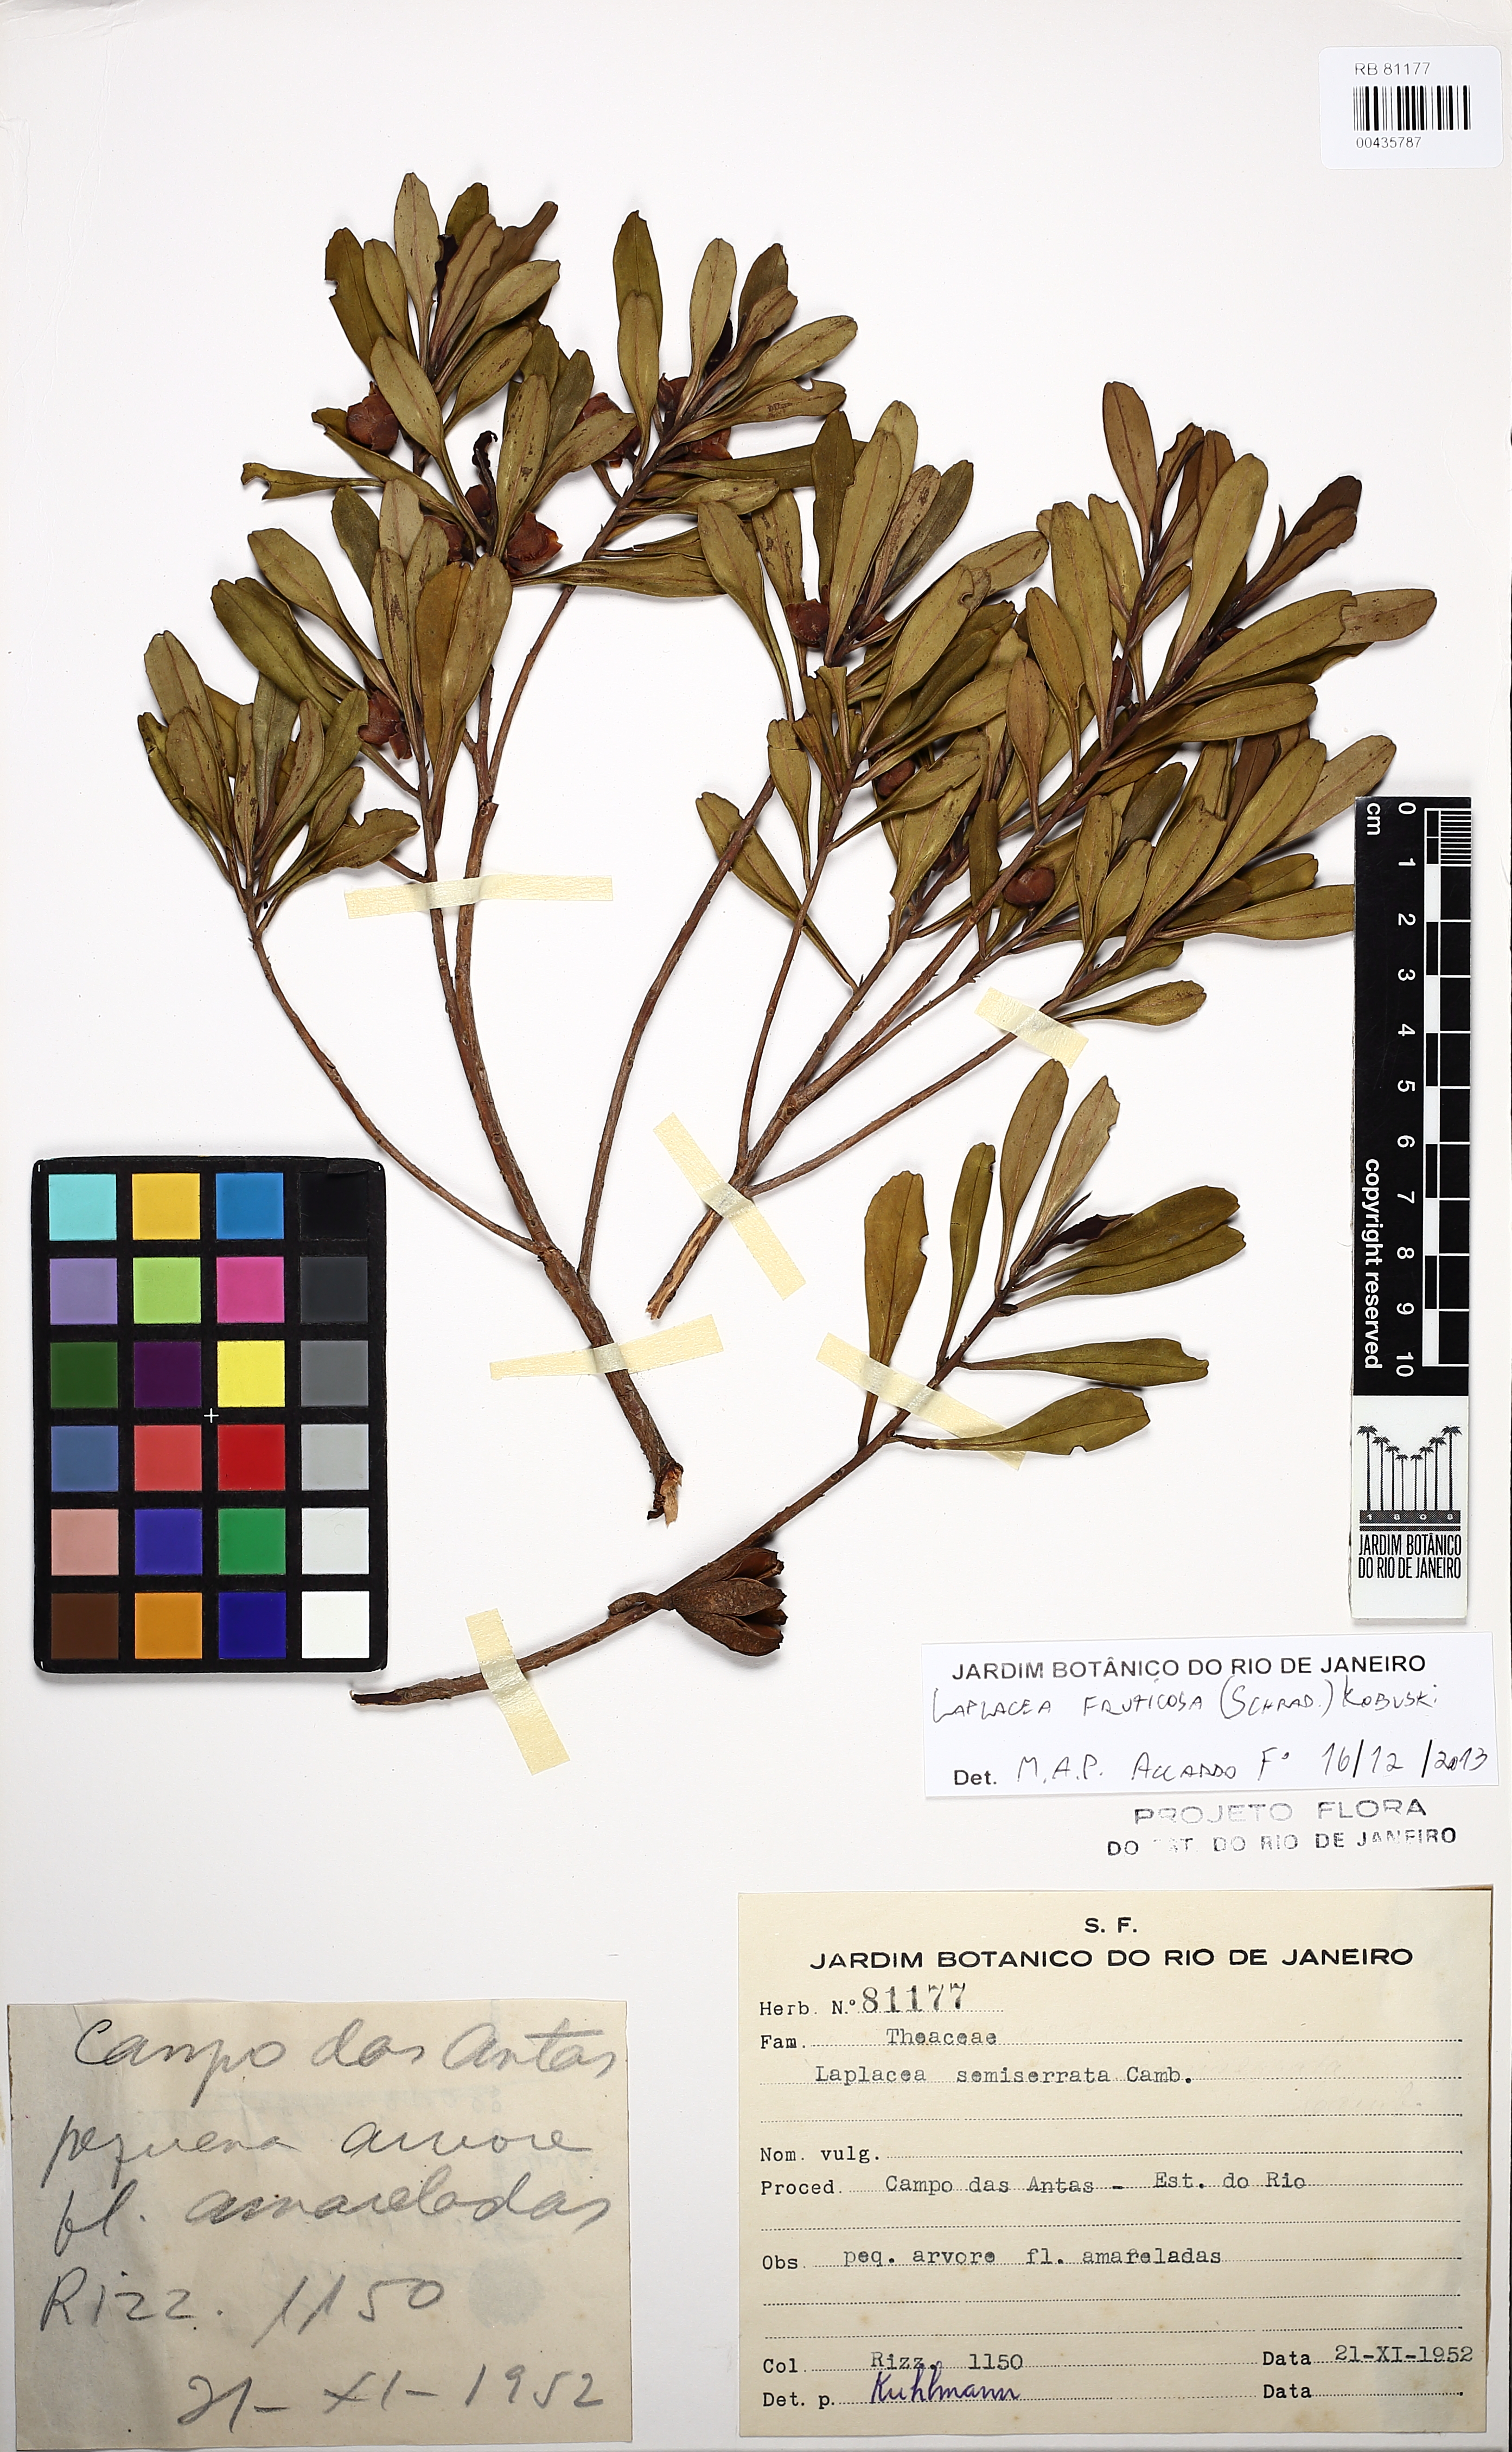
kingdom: Plantae
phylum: Tracheophyta
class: Magnoliopsida
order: Ericales
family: Theaceae
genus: Gordonia
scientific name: Gordonia fruticosa
